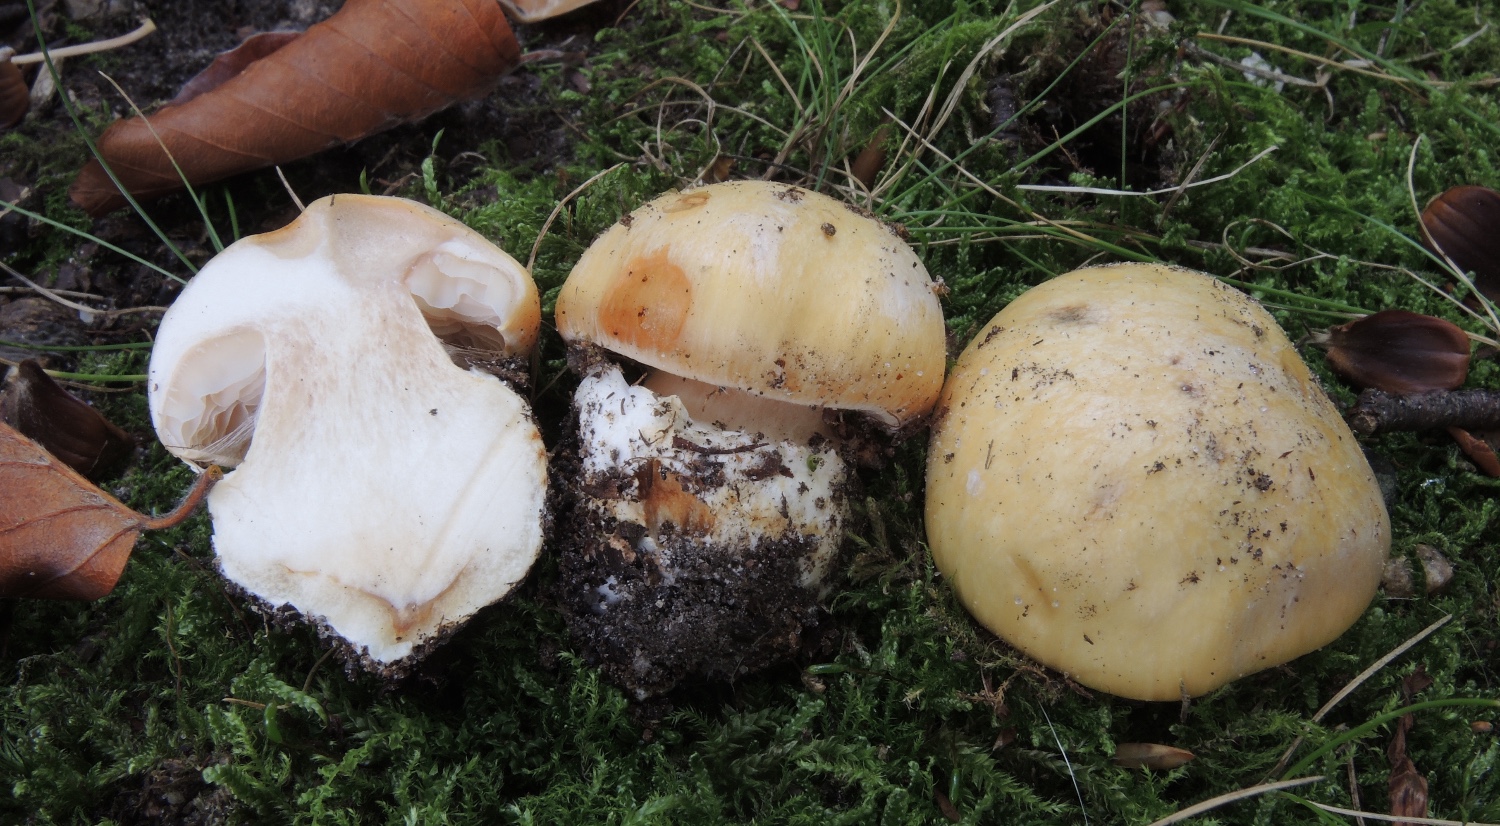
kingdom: Fungi
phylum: Basidiomycota
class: Agaricomycetes
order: Agaricales
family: Cortinariaceae
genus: Phlegmacium
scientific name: Phlegmacium xantho-ochraceum
